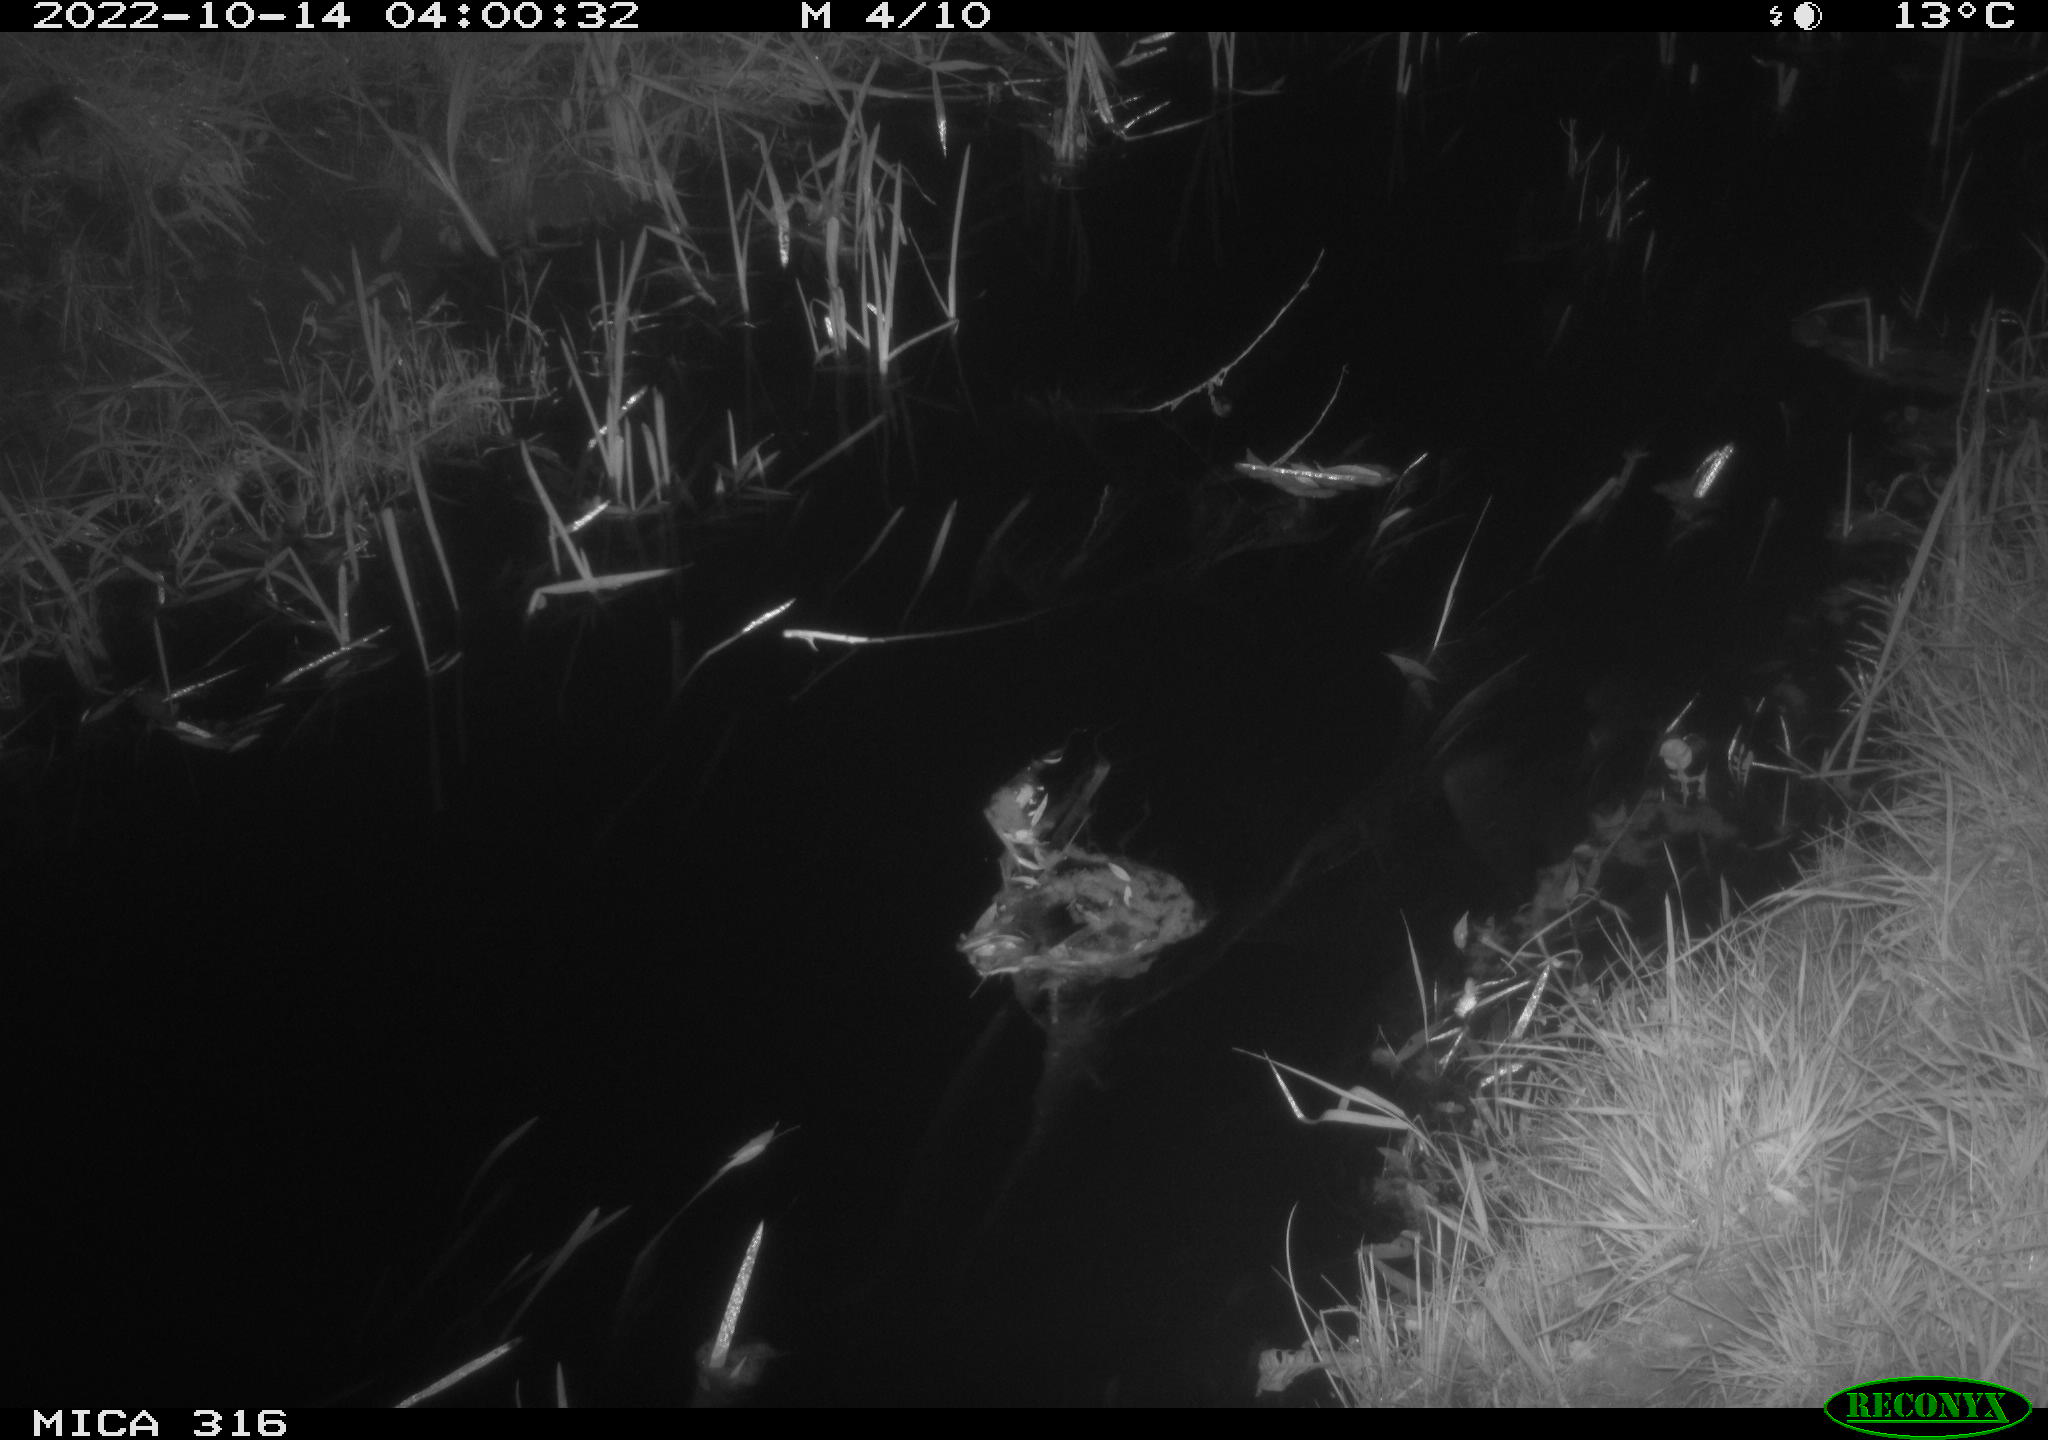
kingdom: Animalia
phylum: Chordata
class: Mammalia
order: Carnivora
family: Canidae
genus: Vulpes
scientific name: Vulpes vulpes
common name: Red fox
